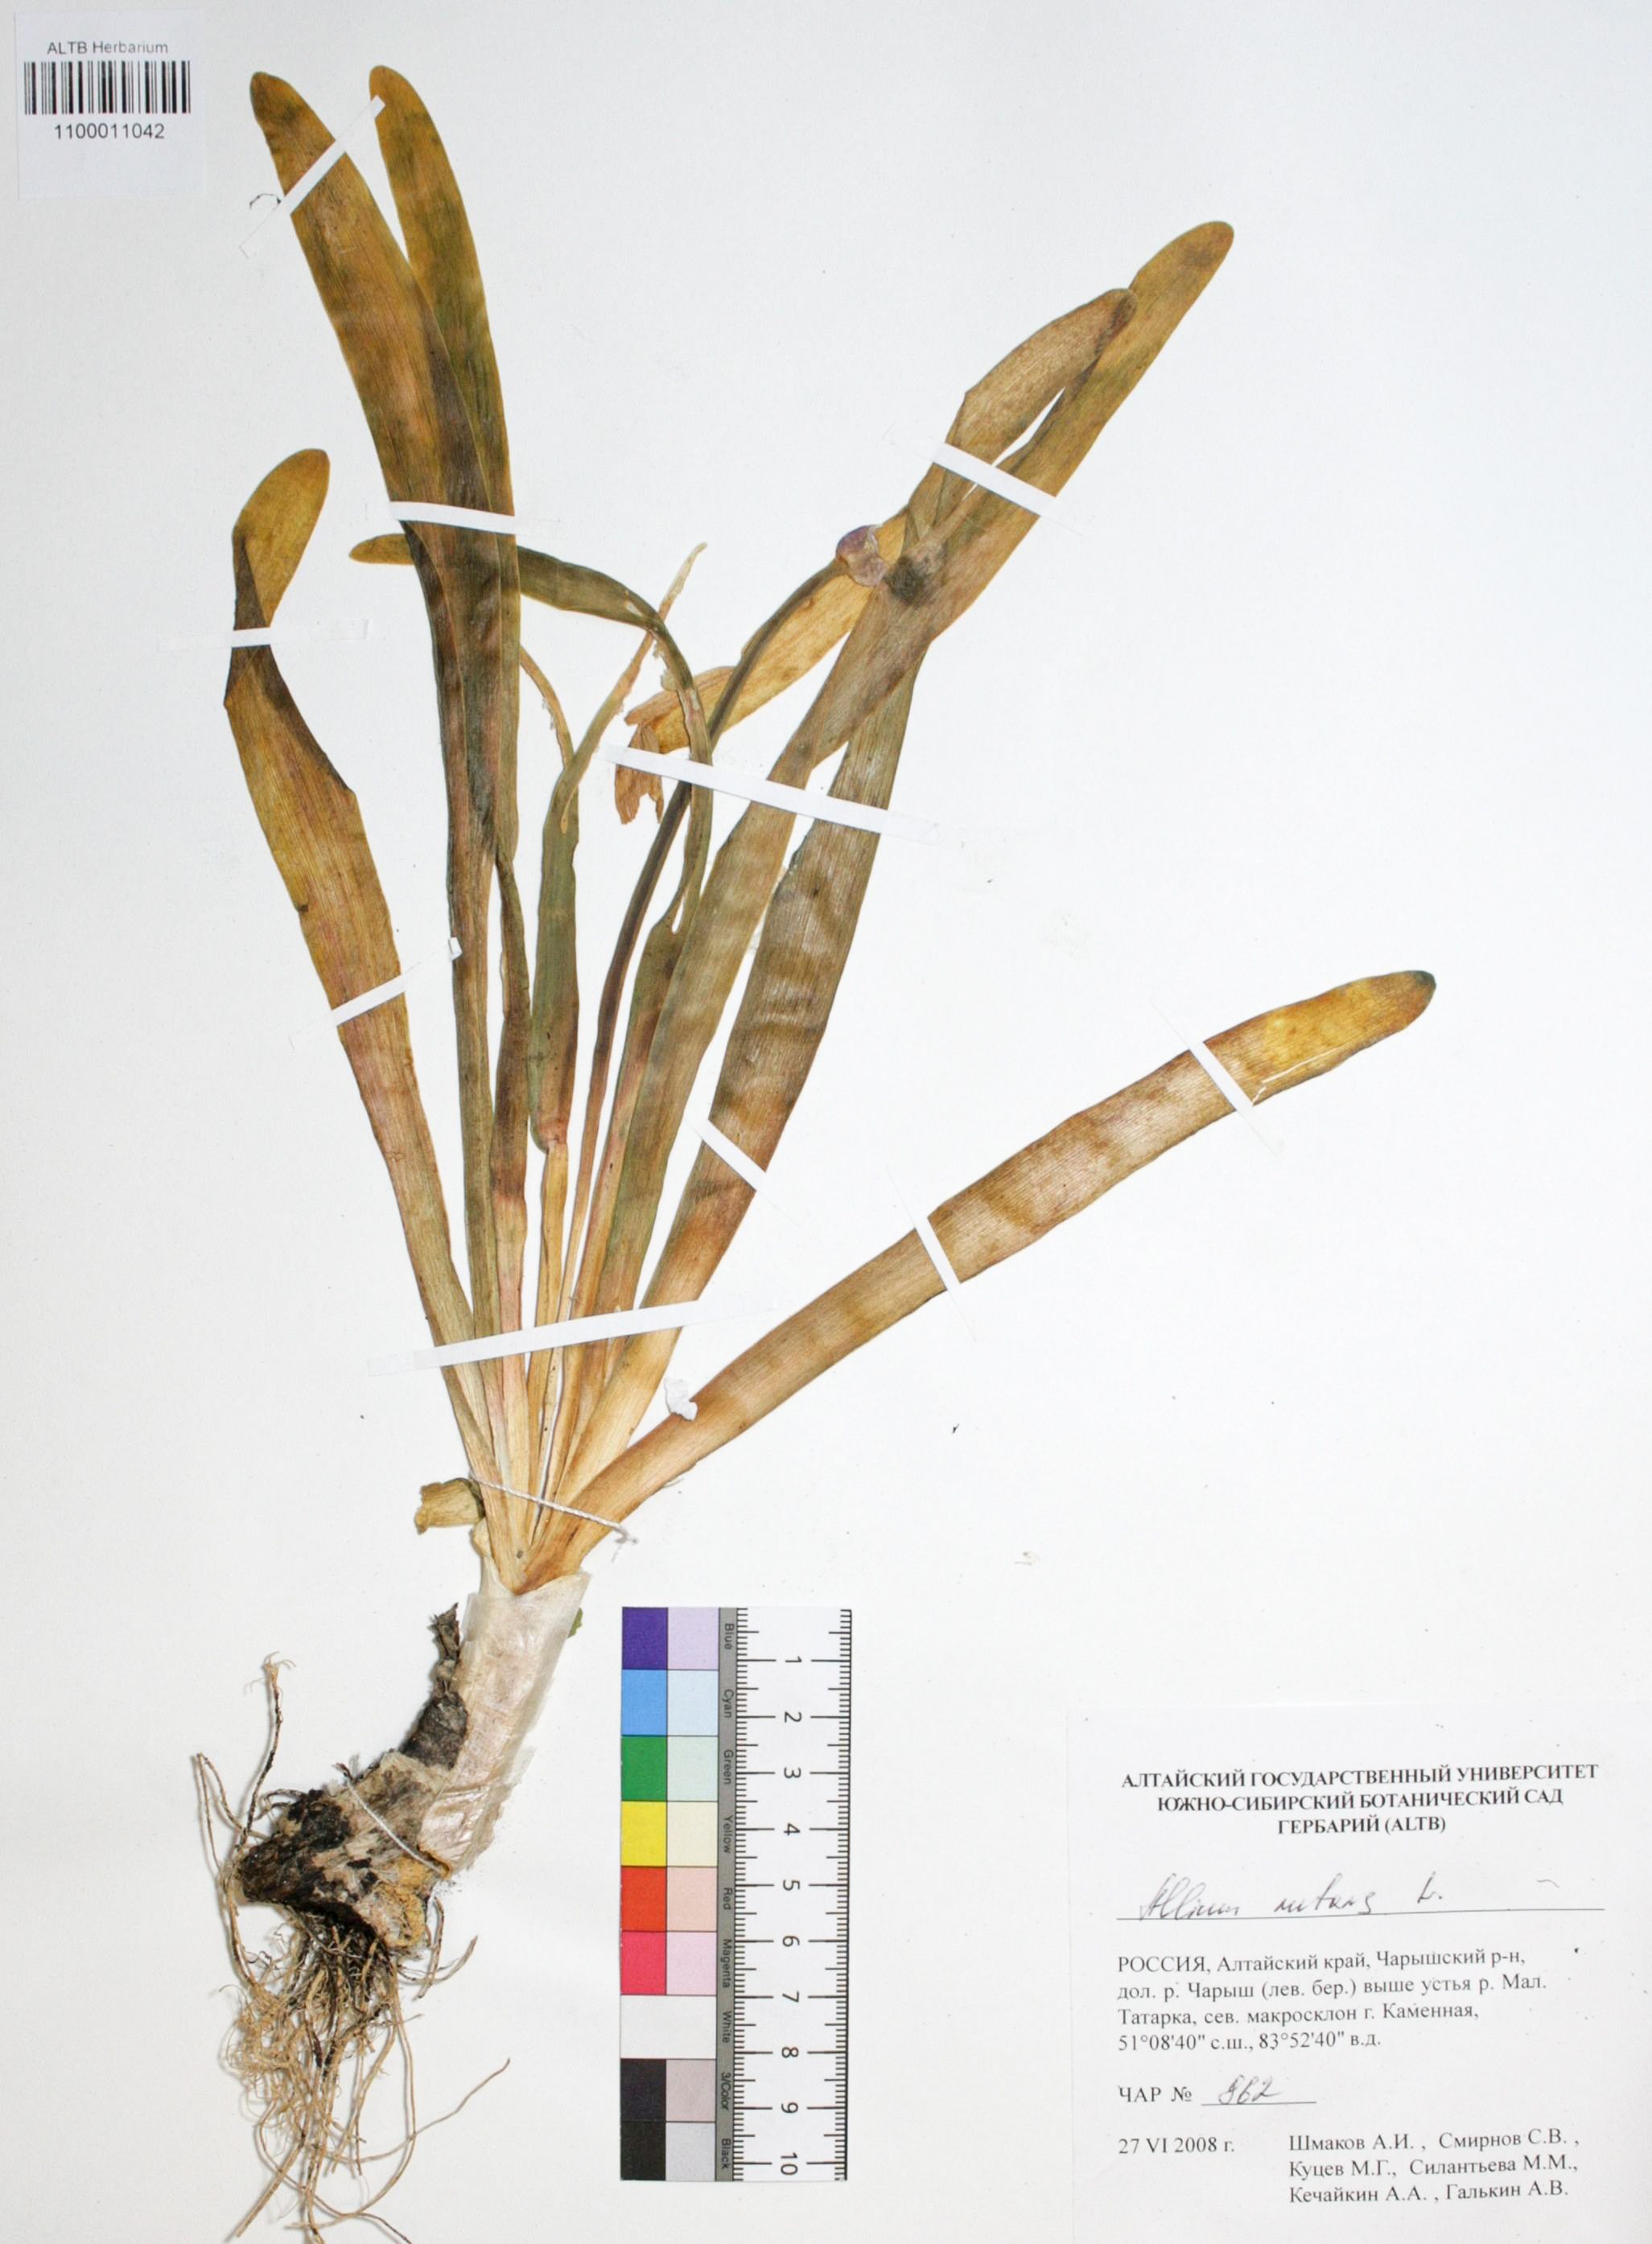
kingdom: Plantae
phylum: Tracheophyta
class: Liliopsida
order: Asparagales
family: Amaryllidaceae
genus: Allium
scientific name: Allium nutans
